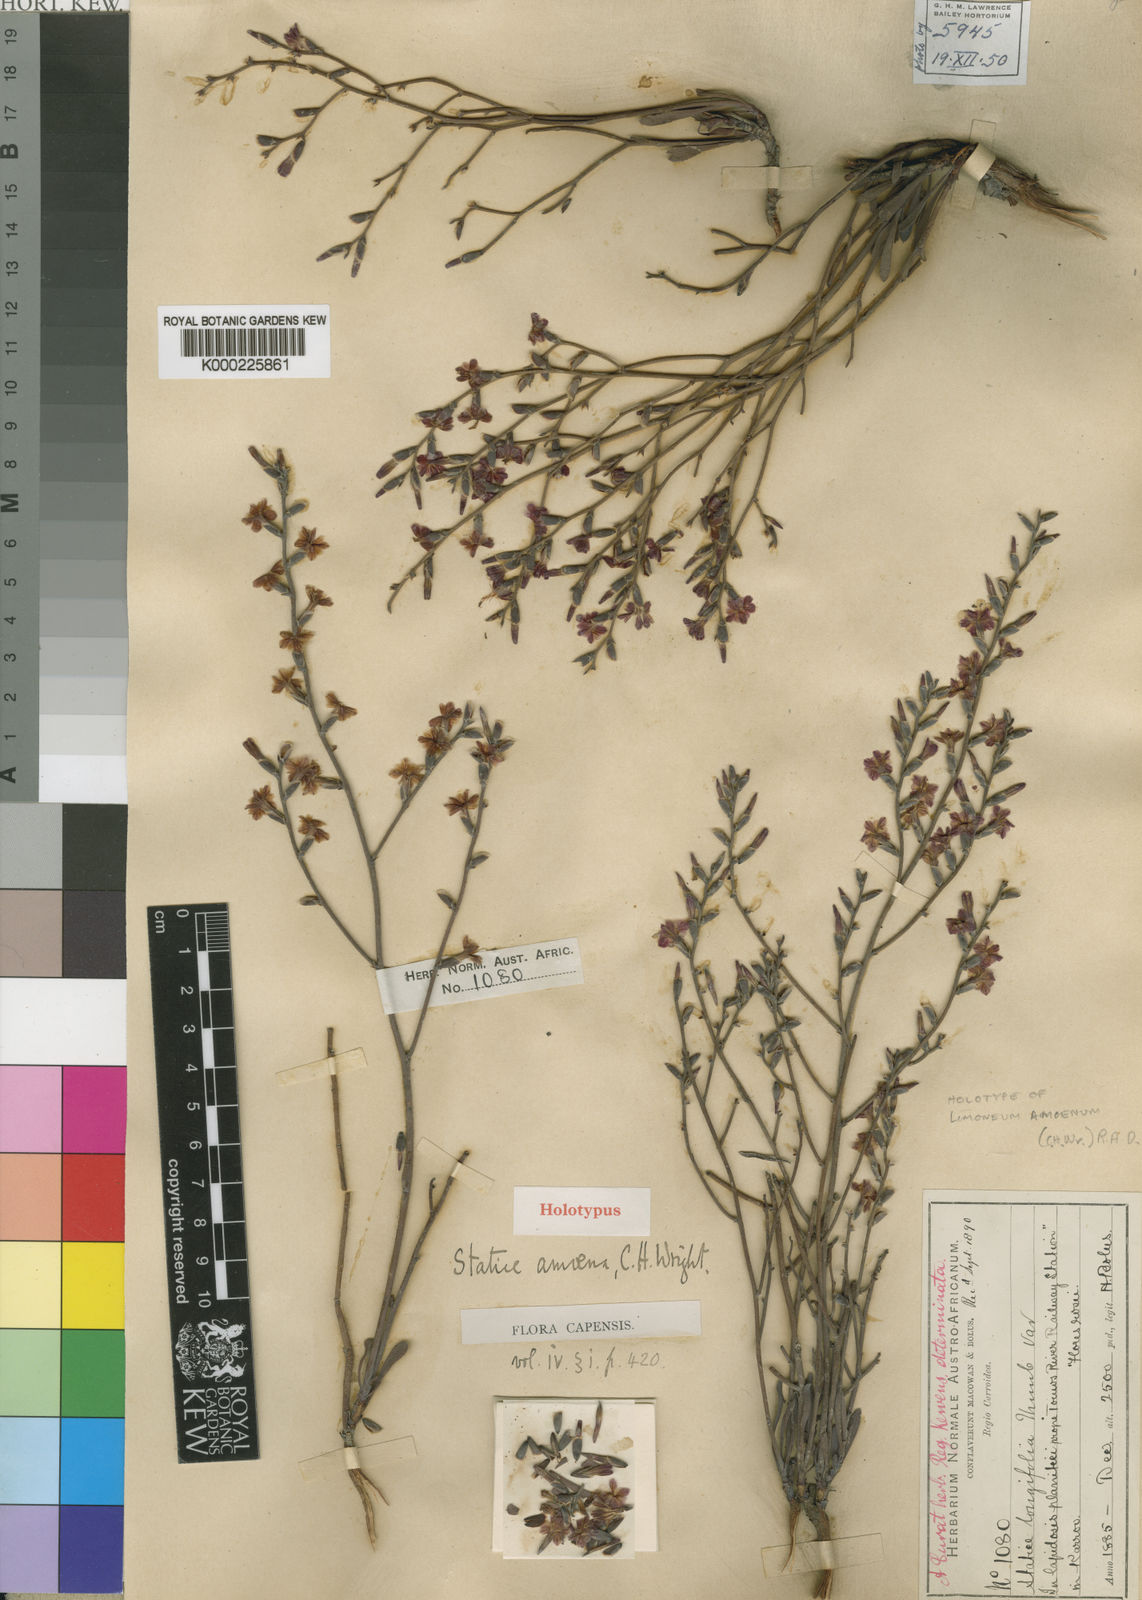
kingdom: Plantae
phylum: Tracheophyta
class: Magnoliopsida
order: Caryophyllales
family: Plumbaginaceae
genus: Limonium
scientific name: Limonium amoenum
